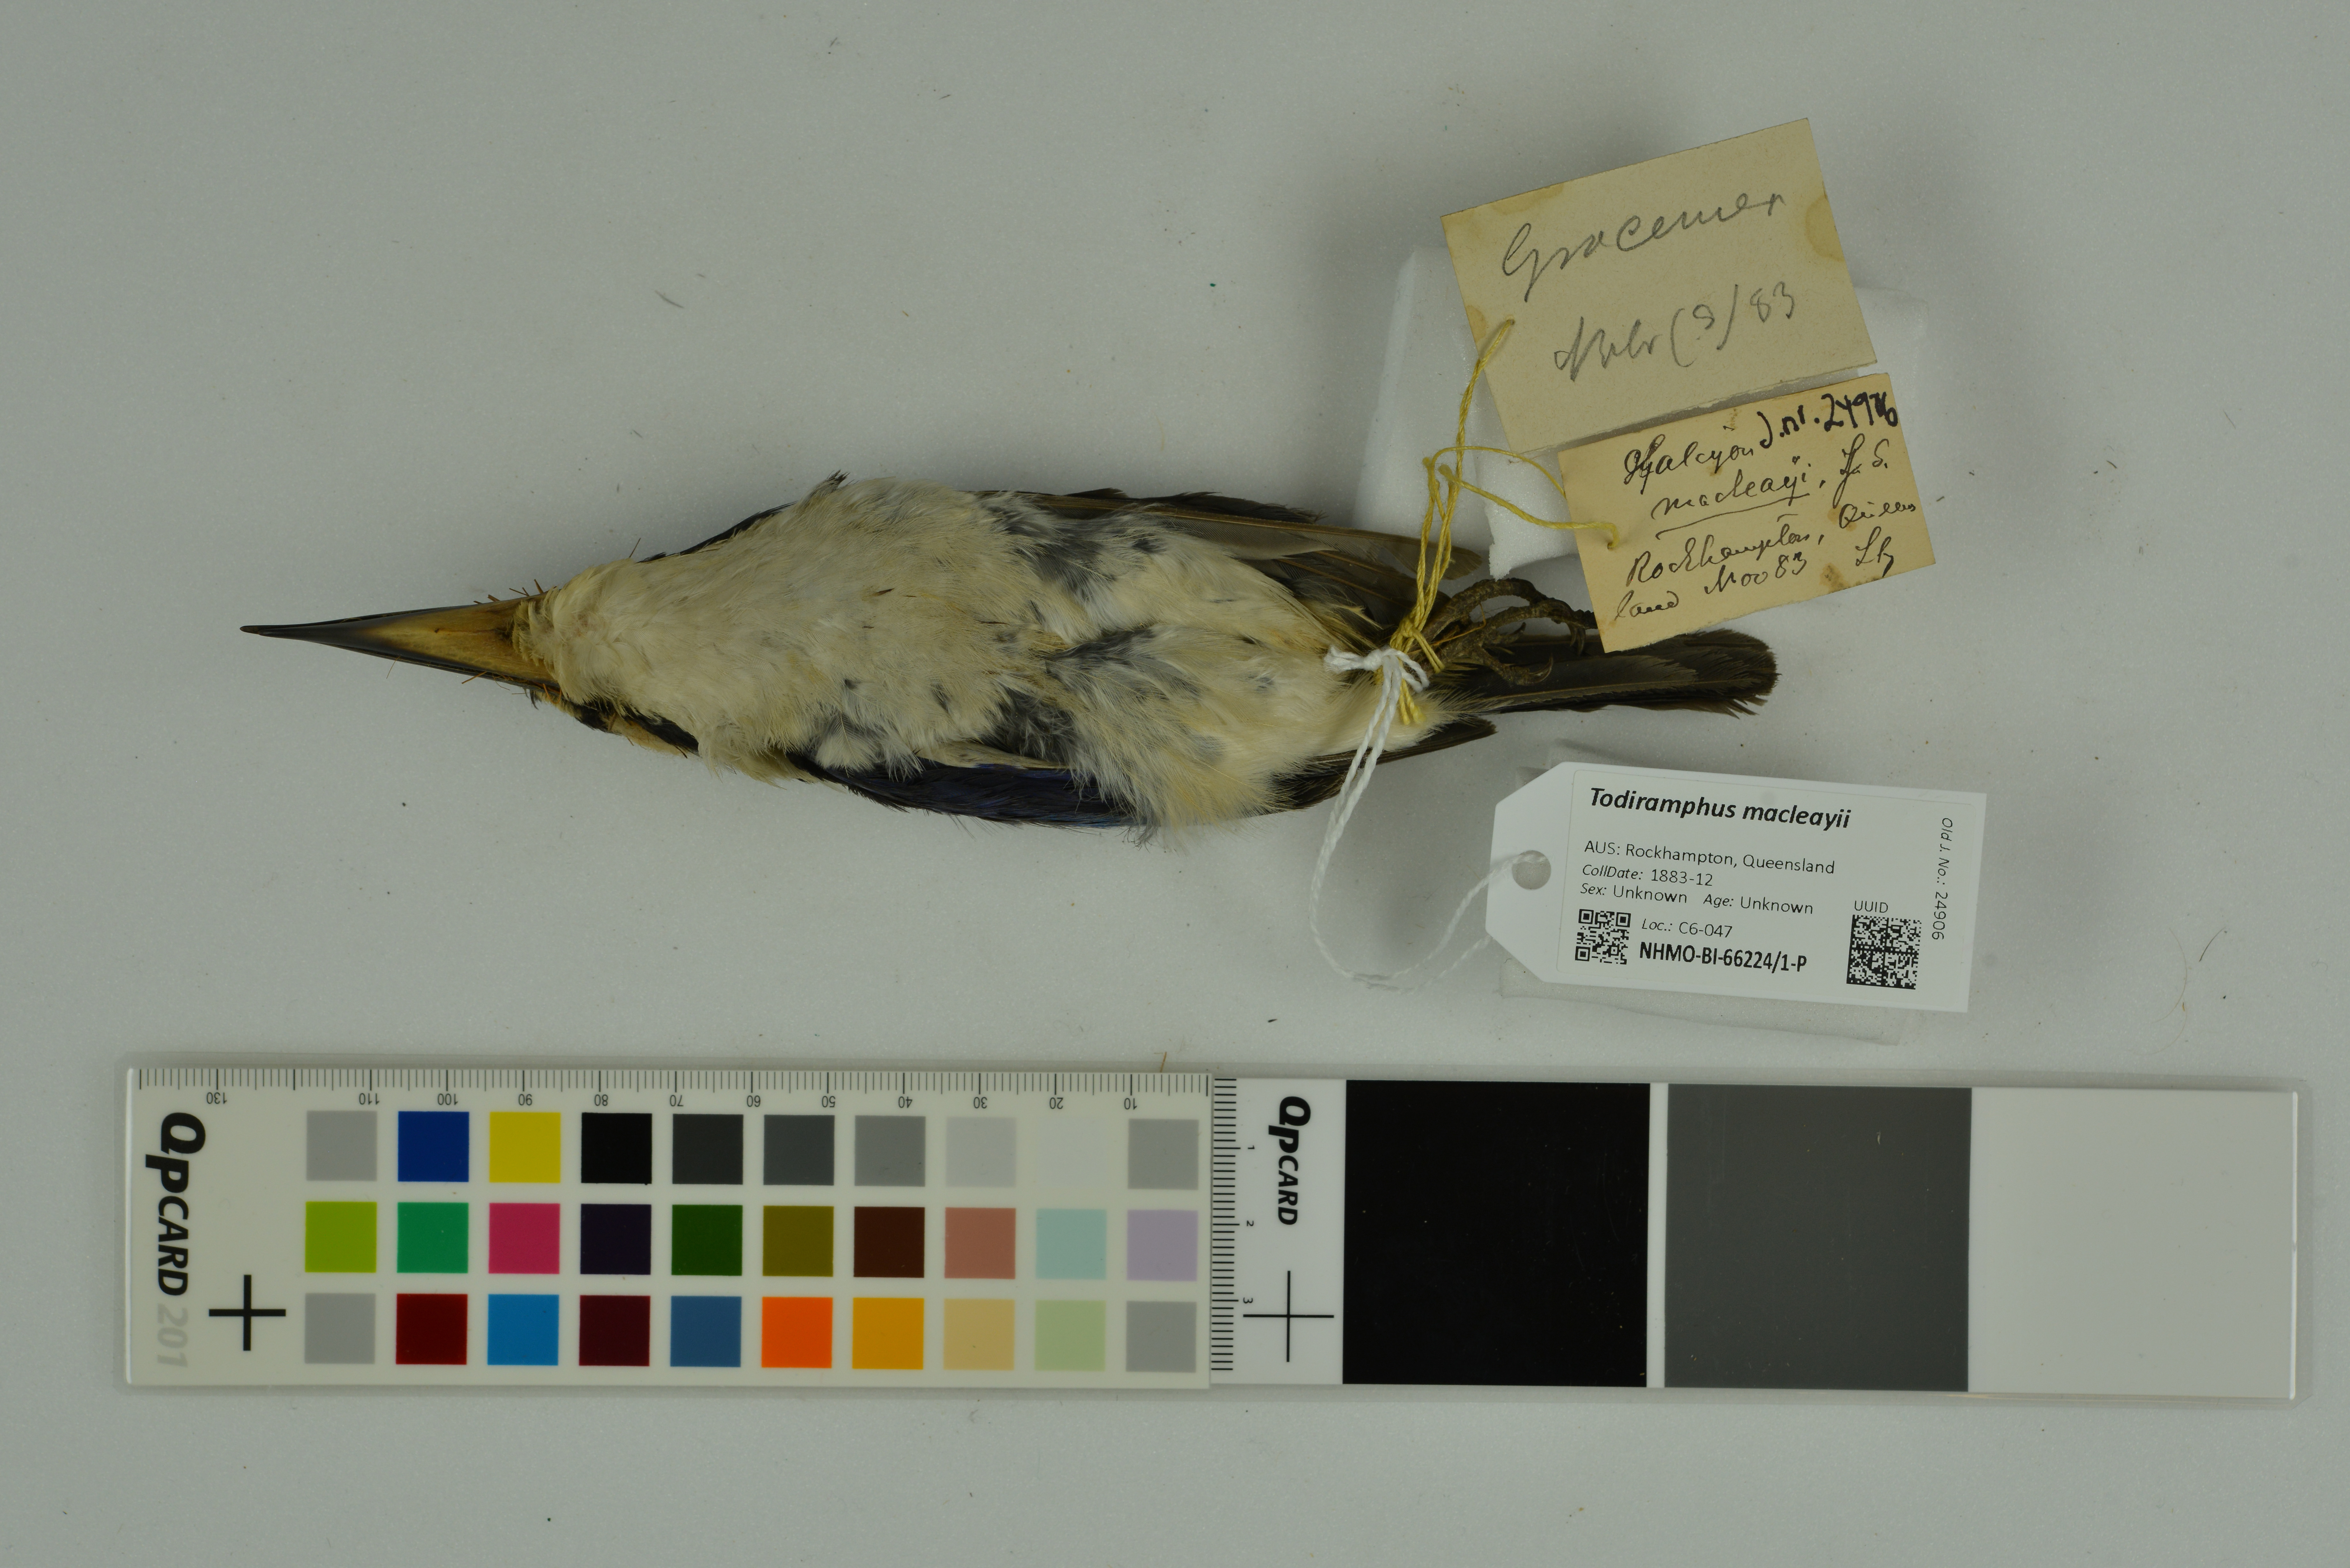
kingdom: Animalia
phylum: Chordata
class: Aves
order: Coraciiformes
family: Alcedinidae
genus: Todiramphus
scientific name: Todiramphus macleayii
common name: Forest kingfisher
